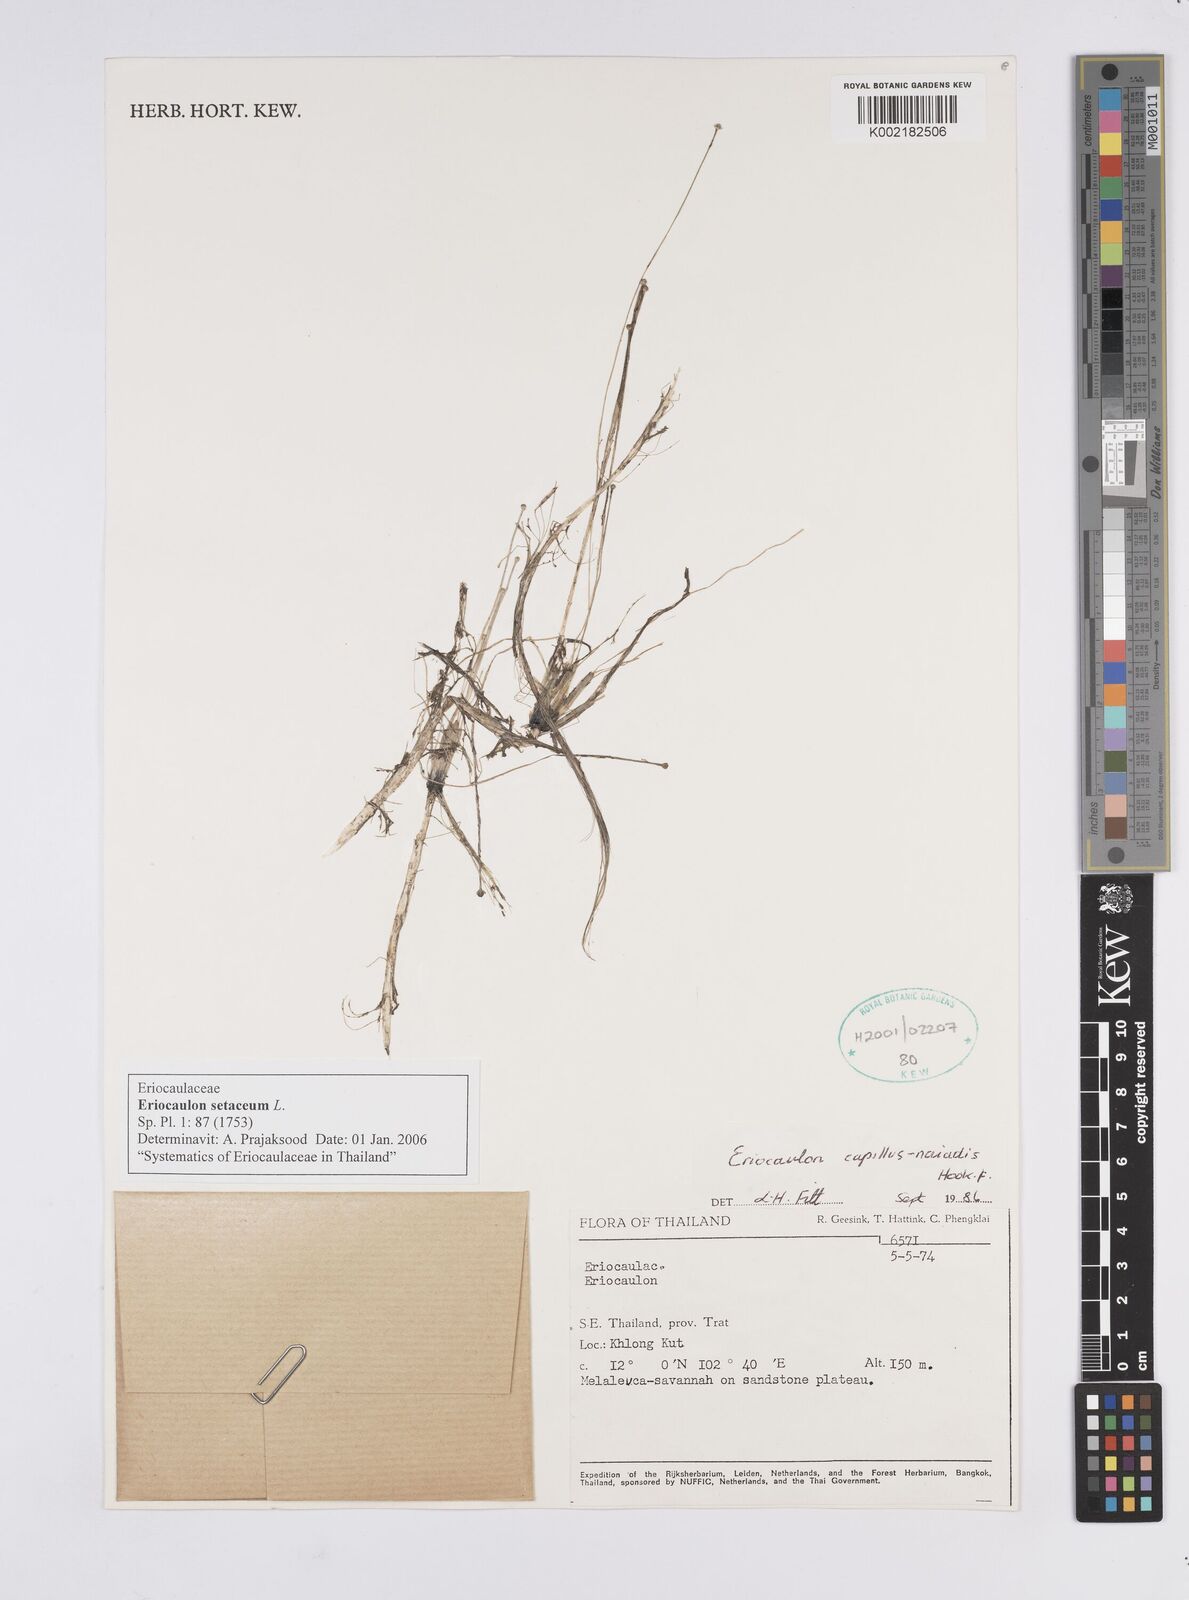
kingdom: Plantae
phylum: Tracheophyta
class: Liliopsida
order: Poales
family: Eriocaulaceae
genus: Eriocaulon
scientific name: Eriocaulon setaceum
